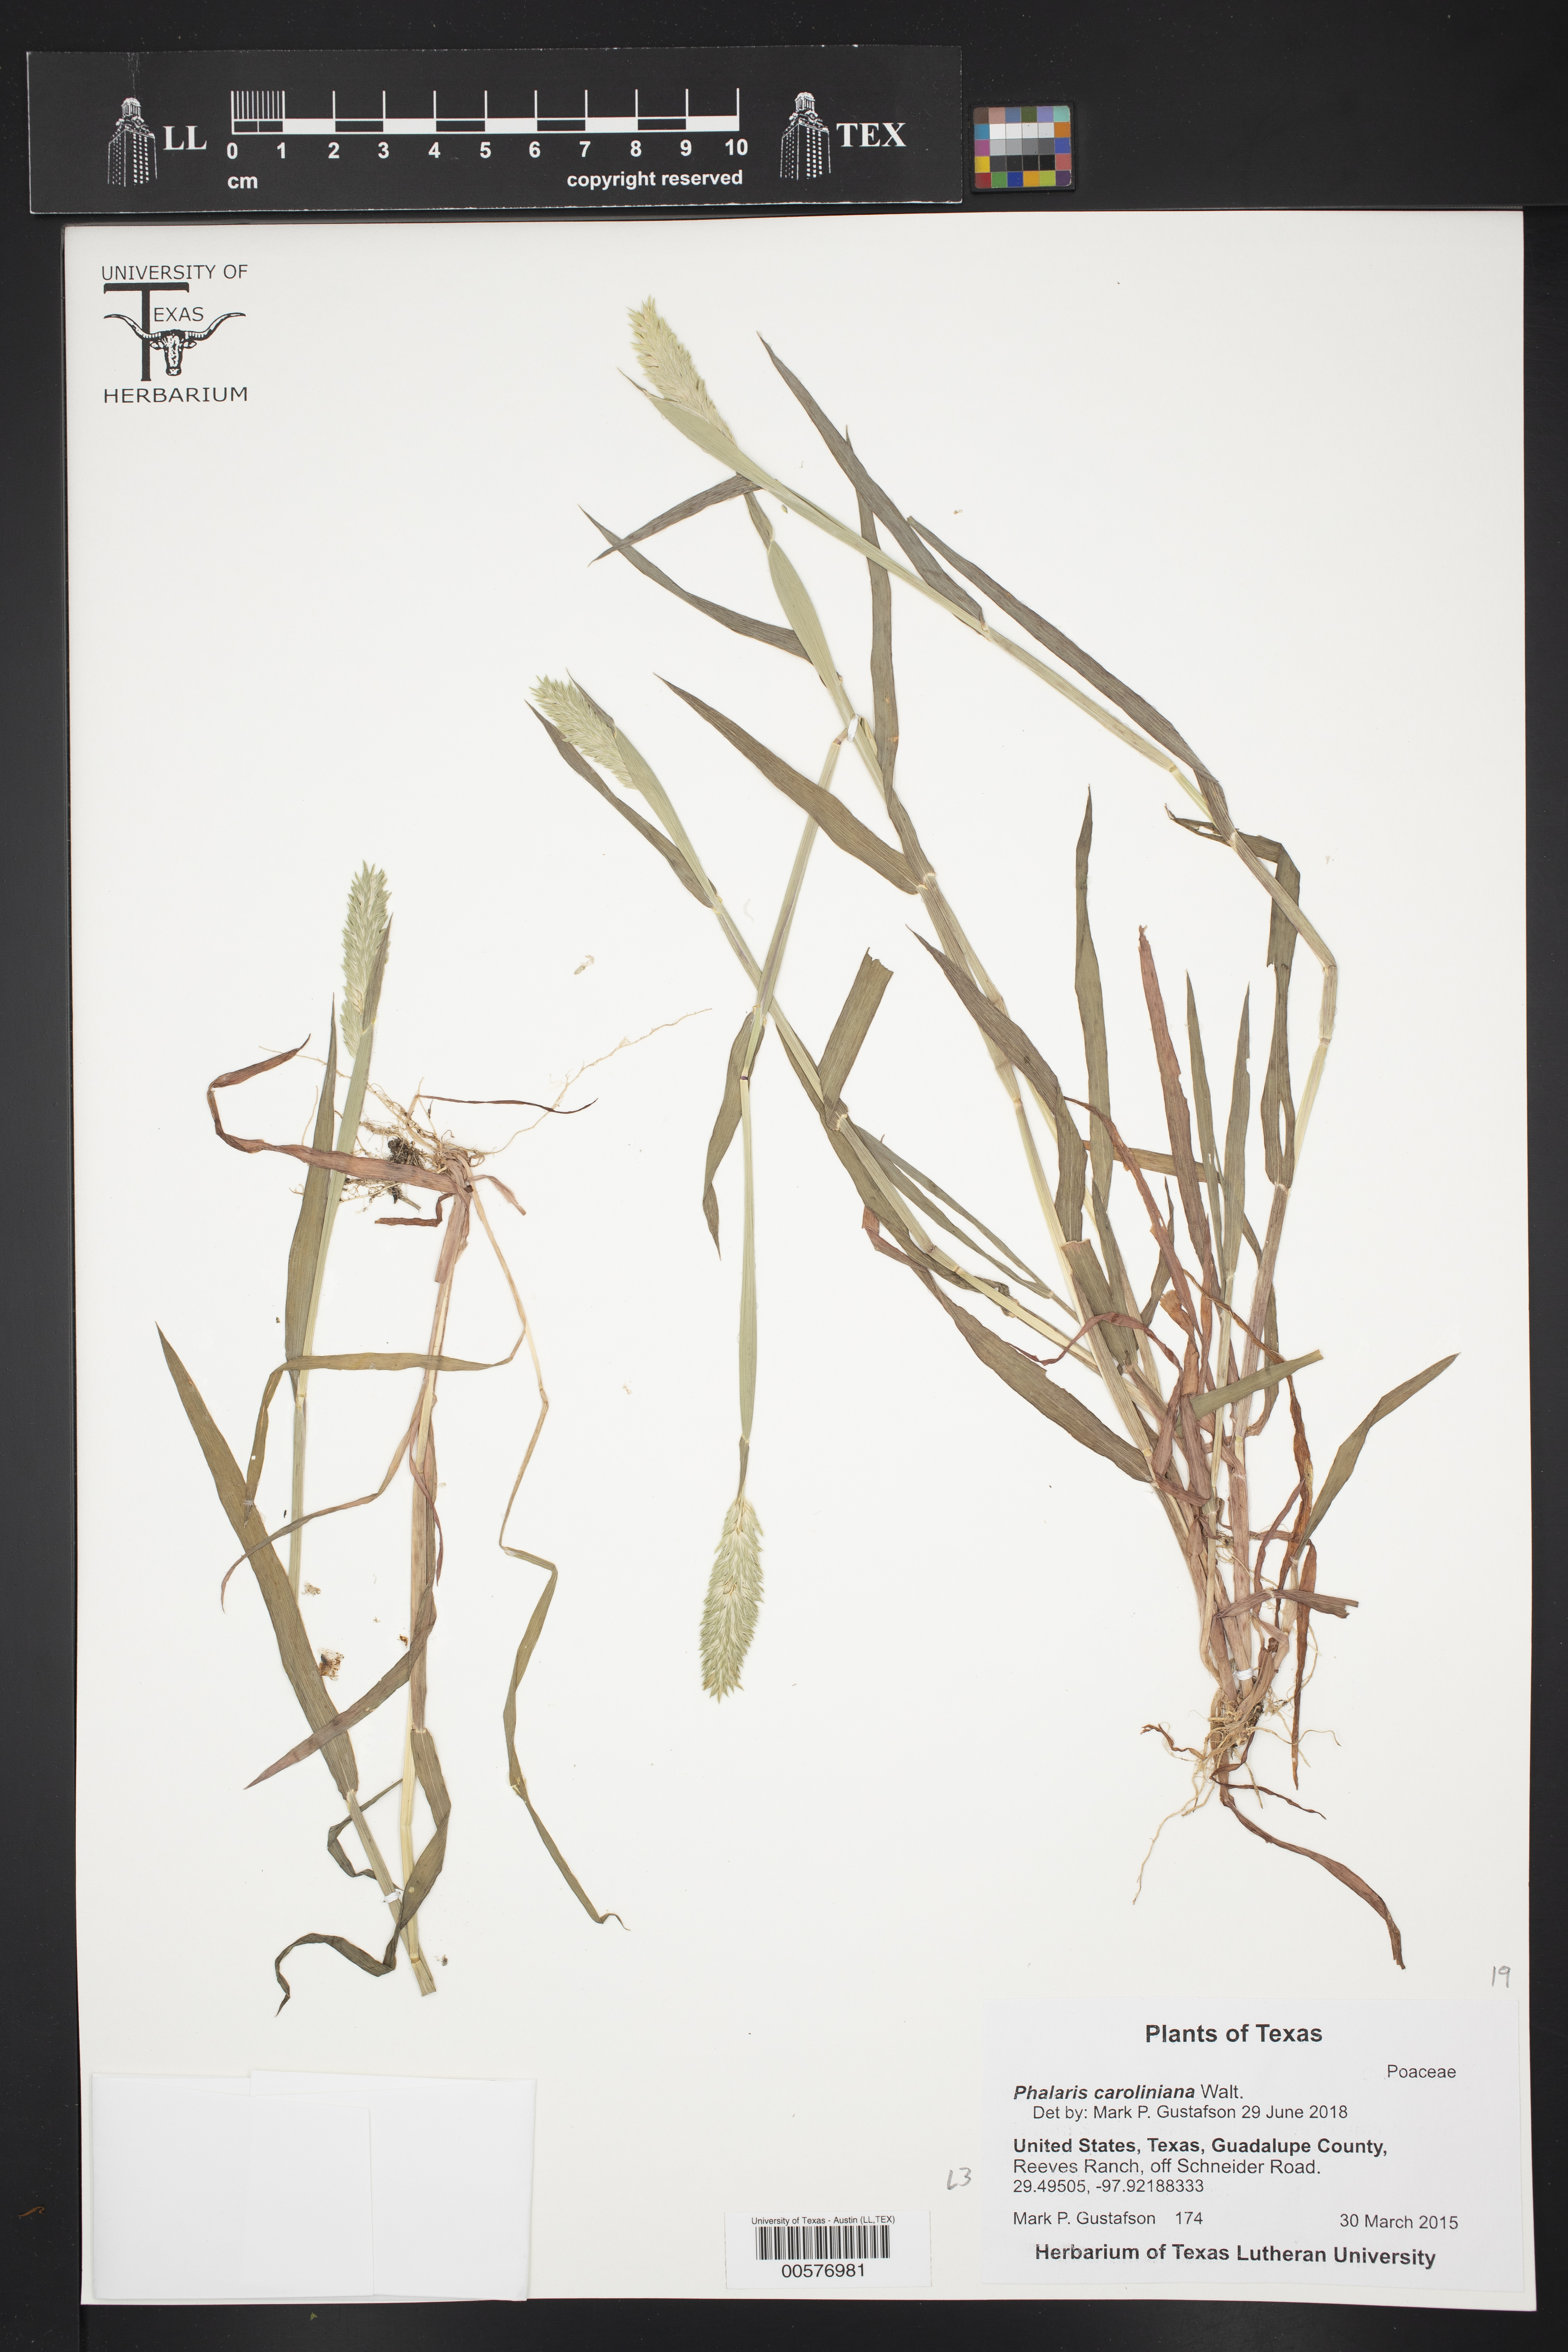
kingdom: Plantae
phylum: Tracheophyta
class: Liliopsida
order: Poales
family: Poaceae
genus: Phalaris
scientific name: Phalaris caroliniana
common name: May grass
